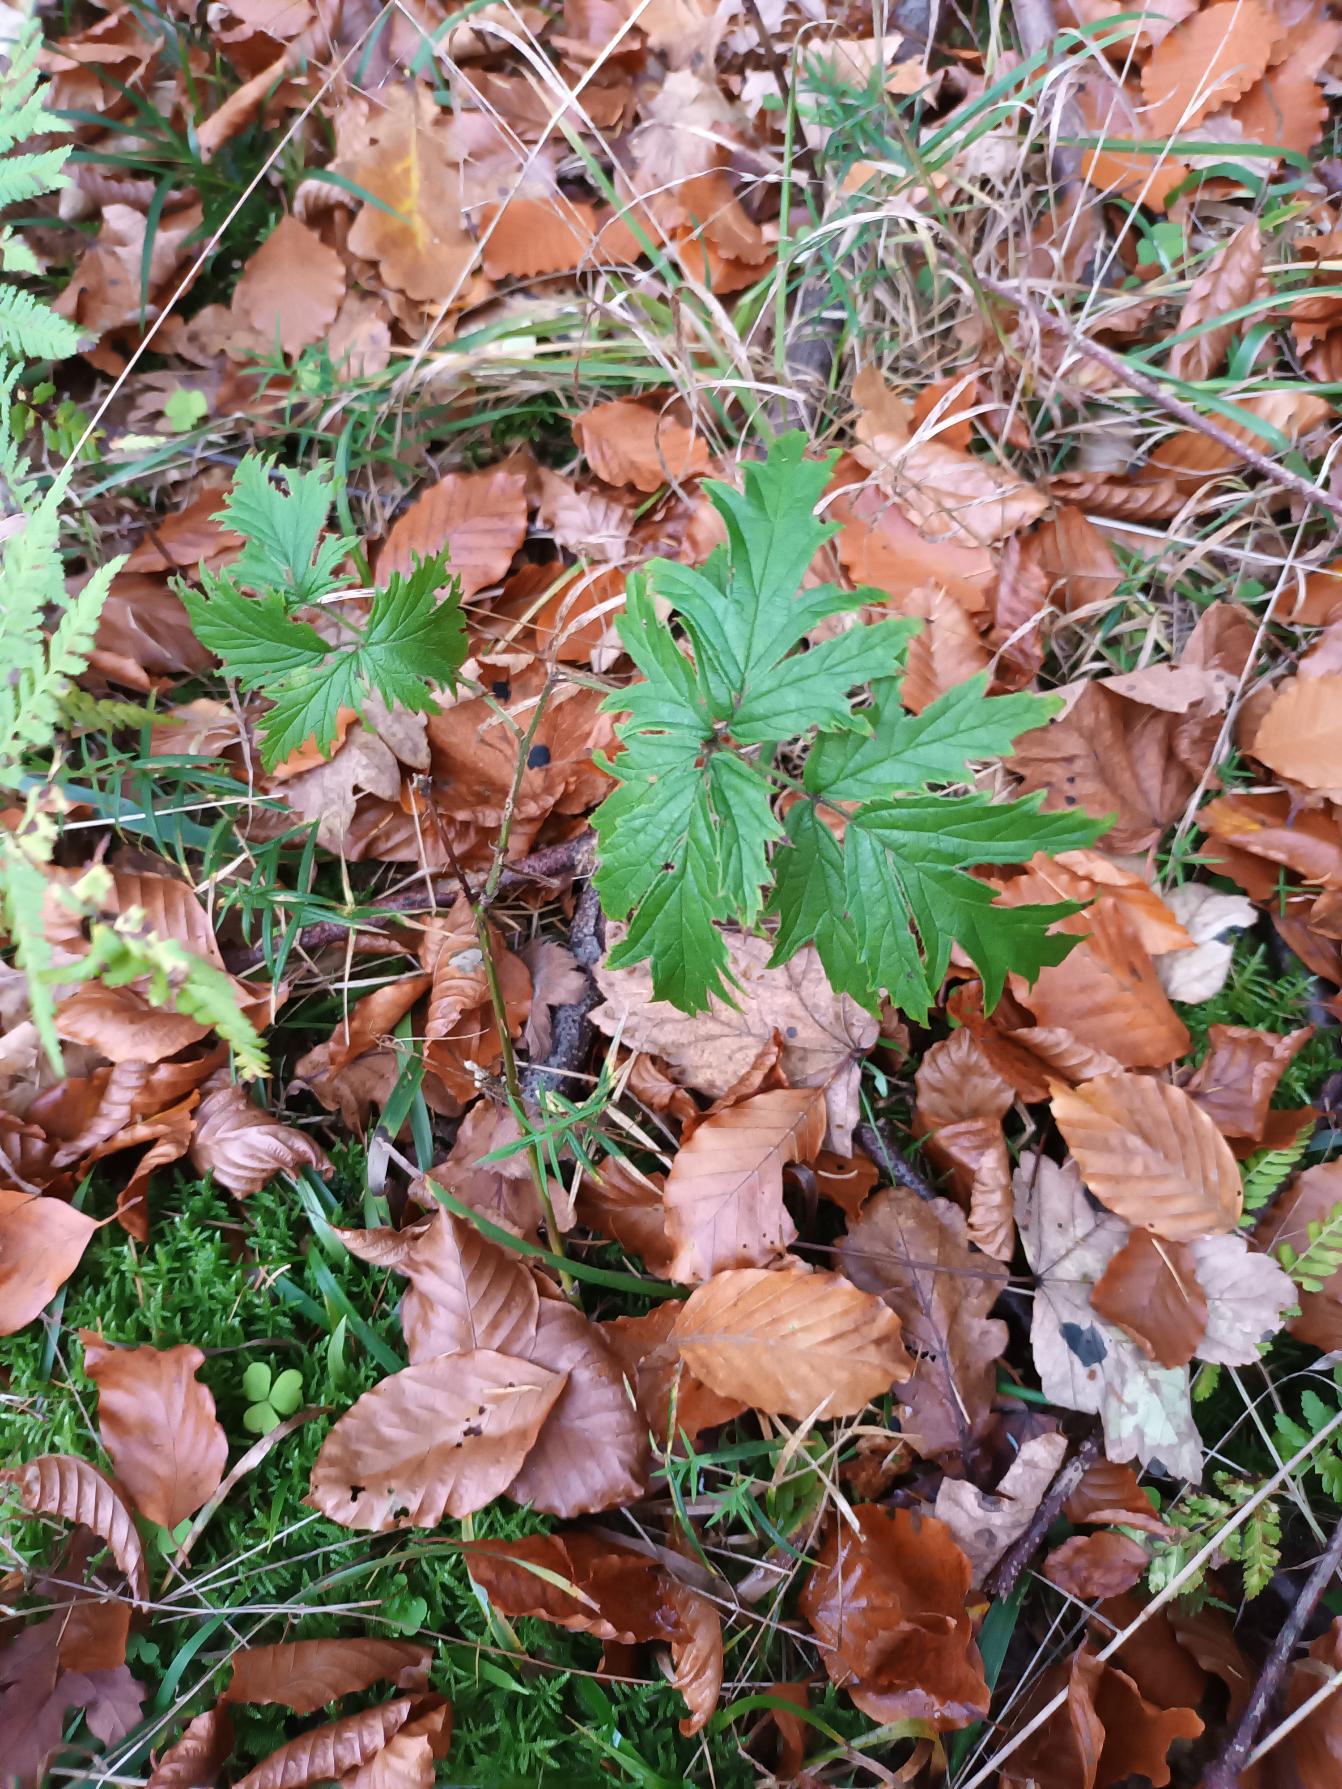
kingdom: Plantae
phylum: Tracheophyta
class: Magnoliopsida
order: Rosales
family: Rosaceae
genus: Rubus
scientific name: Rubus laciniatus
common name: Fliget brombær
